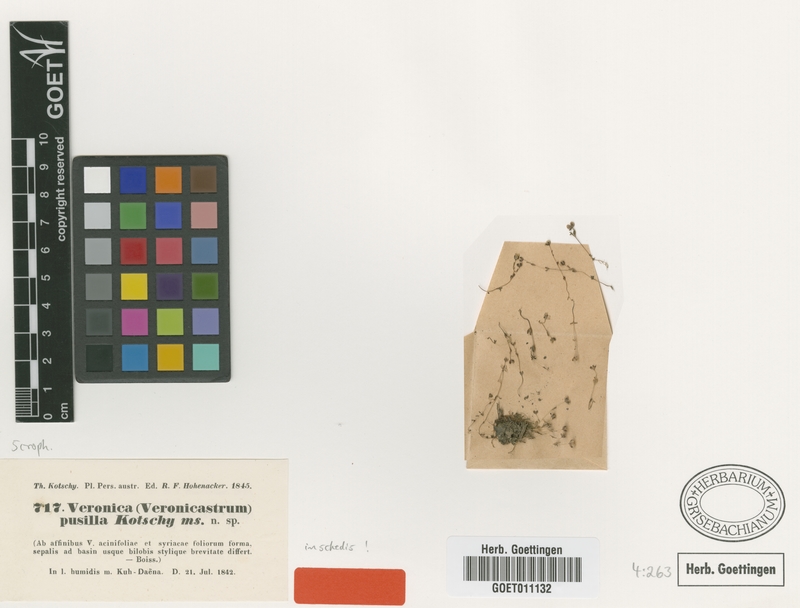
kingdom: Plantae
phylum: Tracheophyta
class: Magnoliopsida
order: Lamiales
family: Plantaginaceae
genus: Veronica
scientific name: Veronica pusilla
